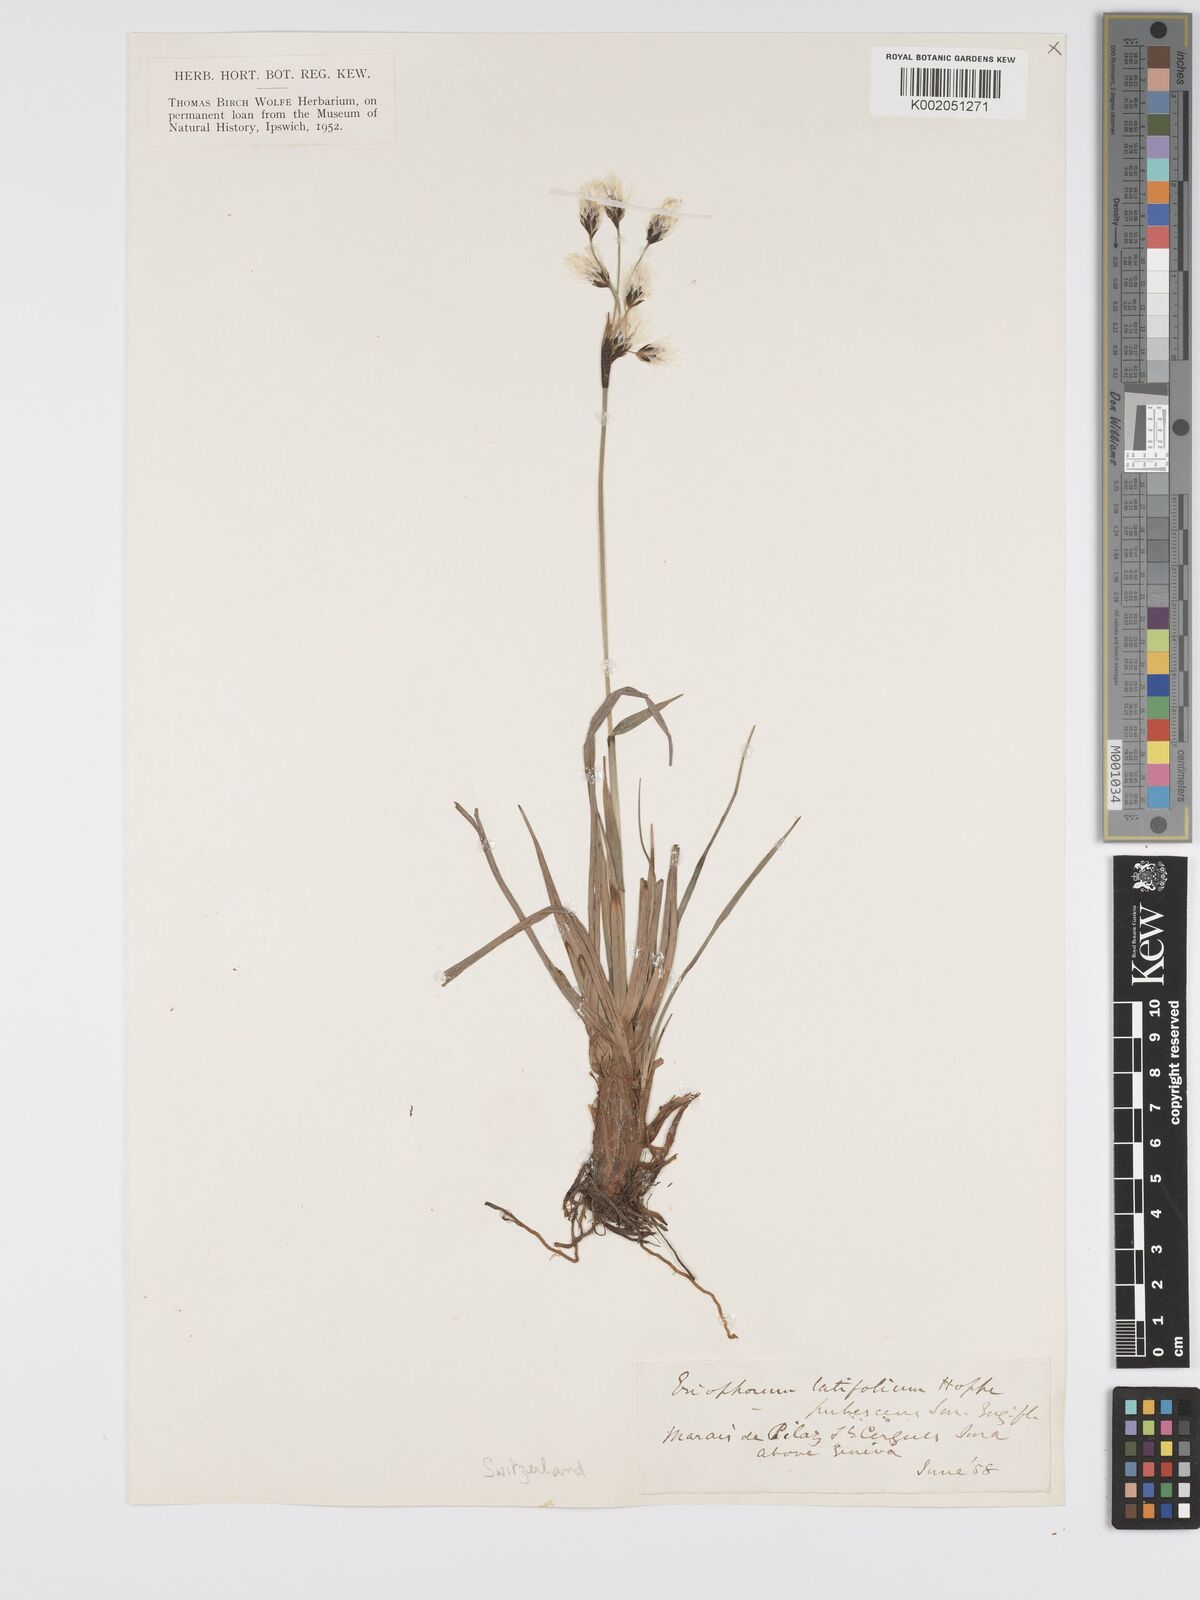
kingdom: Plantae
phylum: Tracheophyta
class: Liliopsida
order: Poales
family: Cyperaceae
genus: Eriophorum
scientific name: Eriophorum latifolium
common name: Broad-leaved cottongrass
